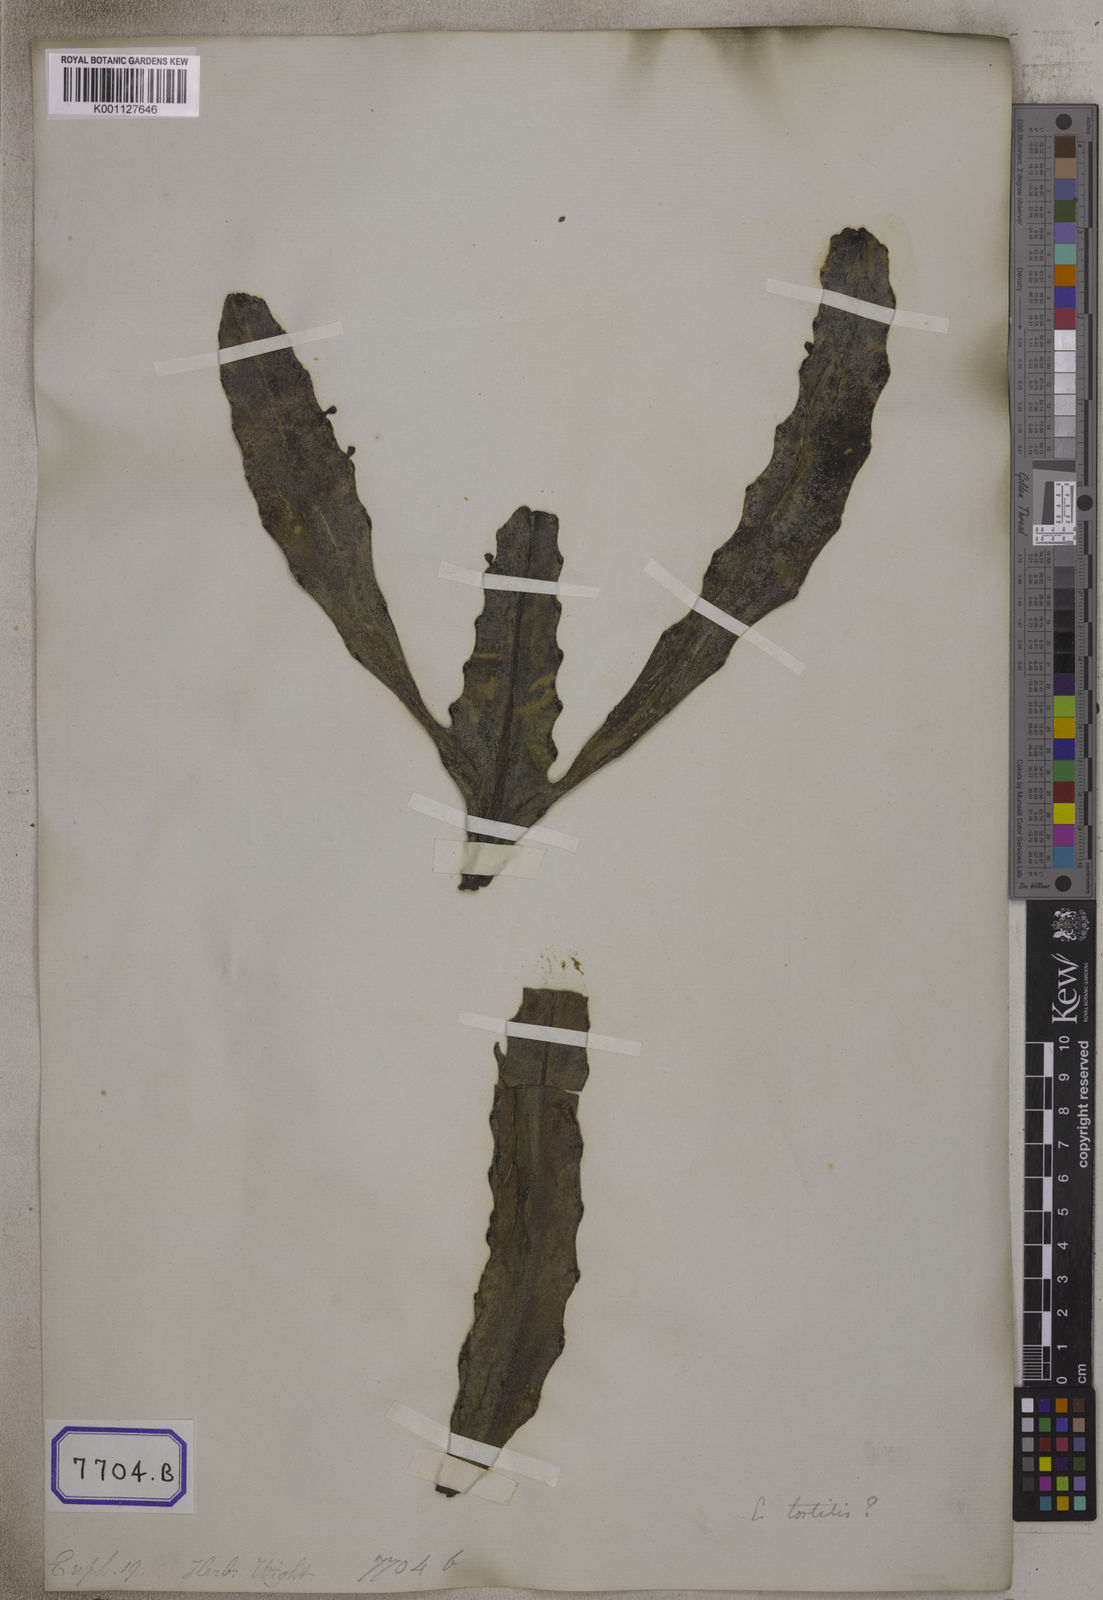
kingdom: Plantae
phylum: Tracheophyta
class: Magnoliopsida
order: Malpighiales
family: Euphorbiaceae
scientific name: Euphorbiaceae
